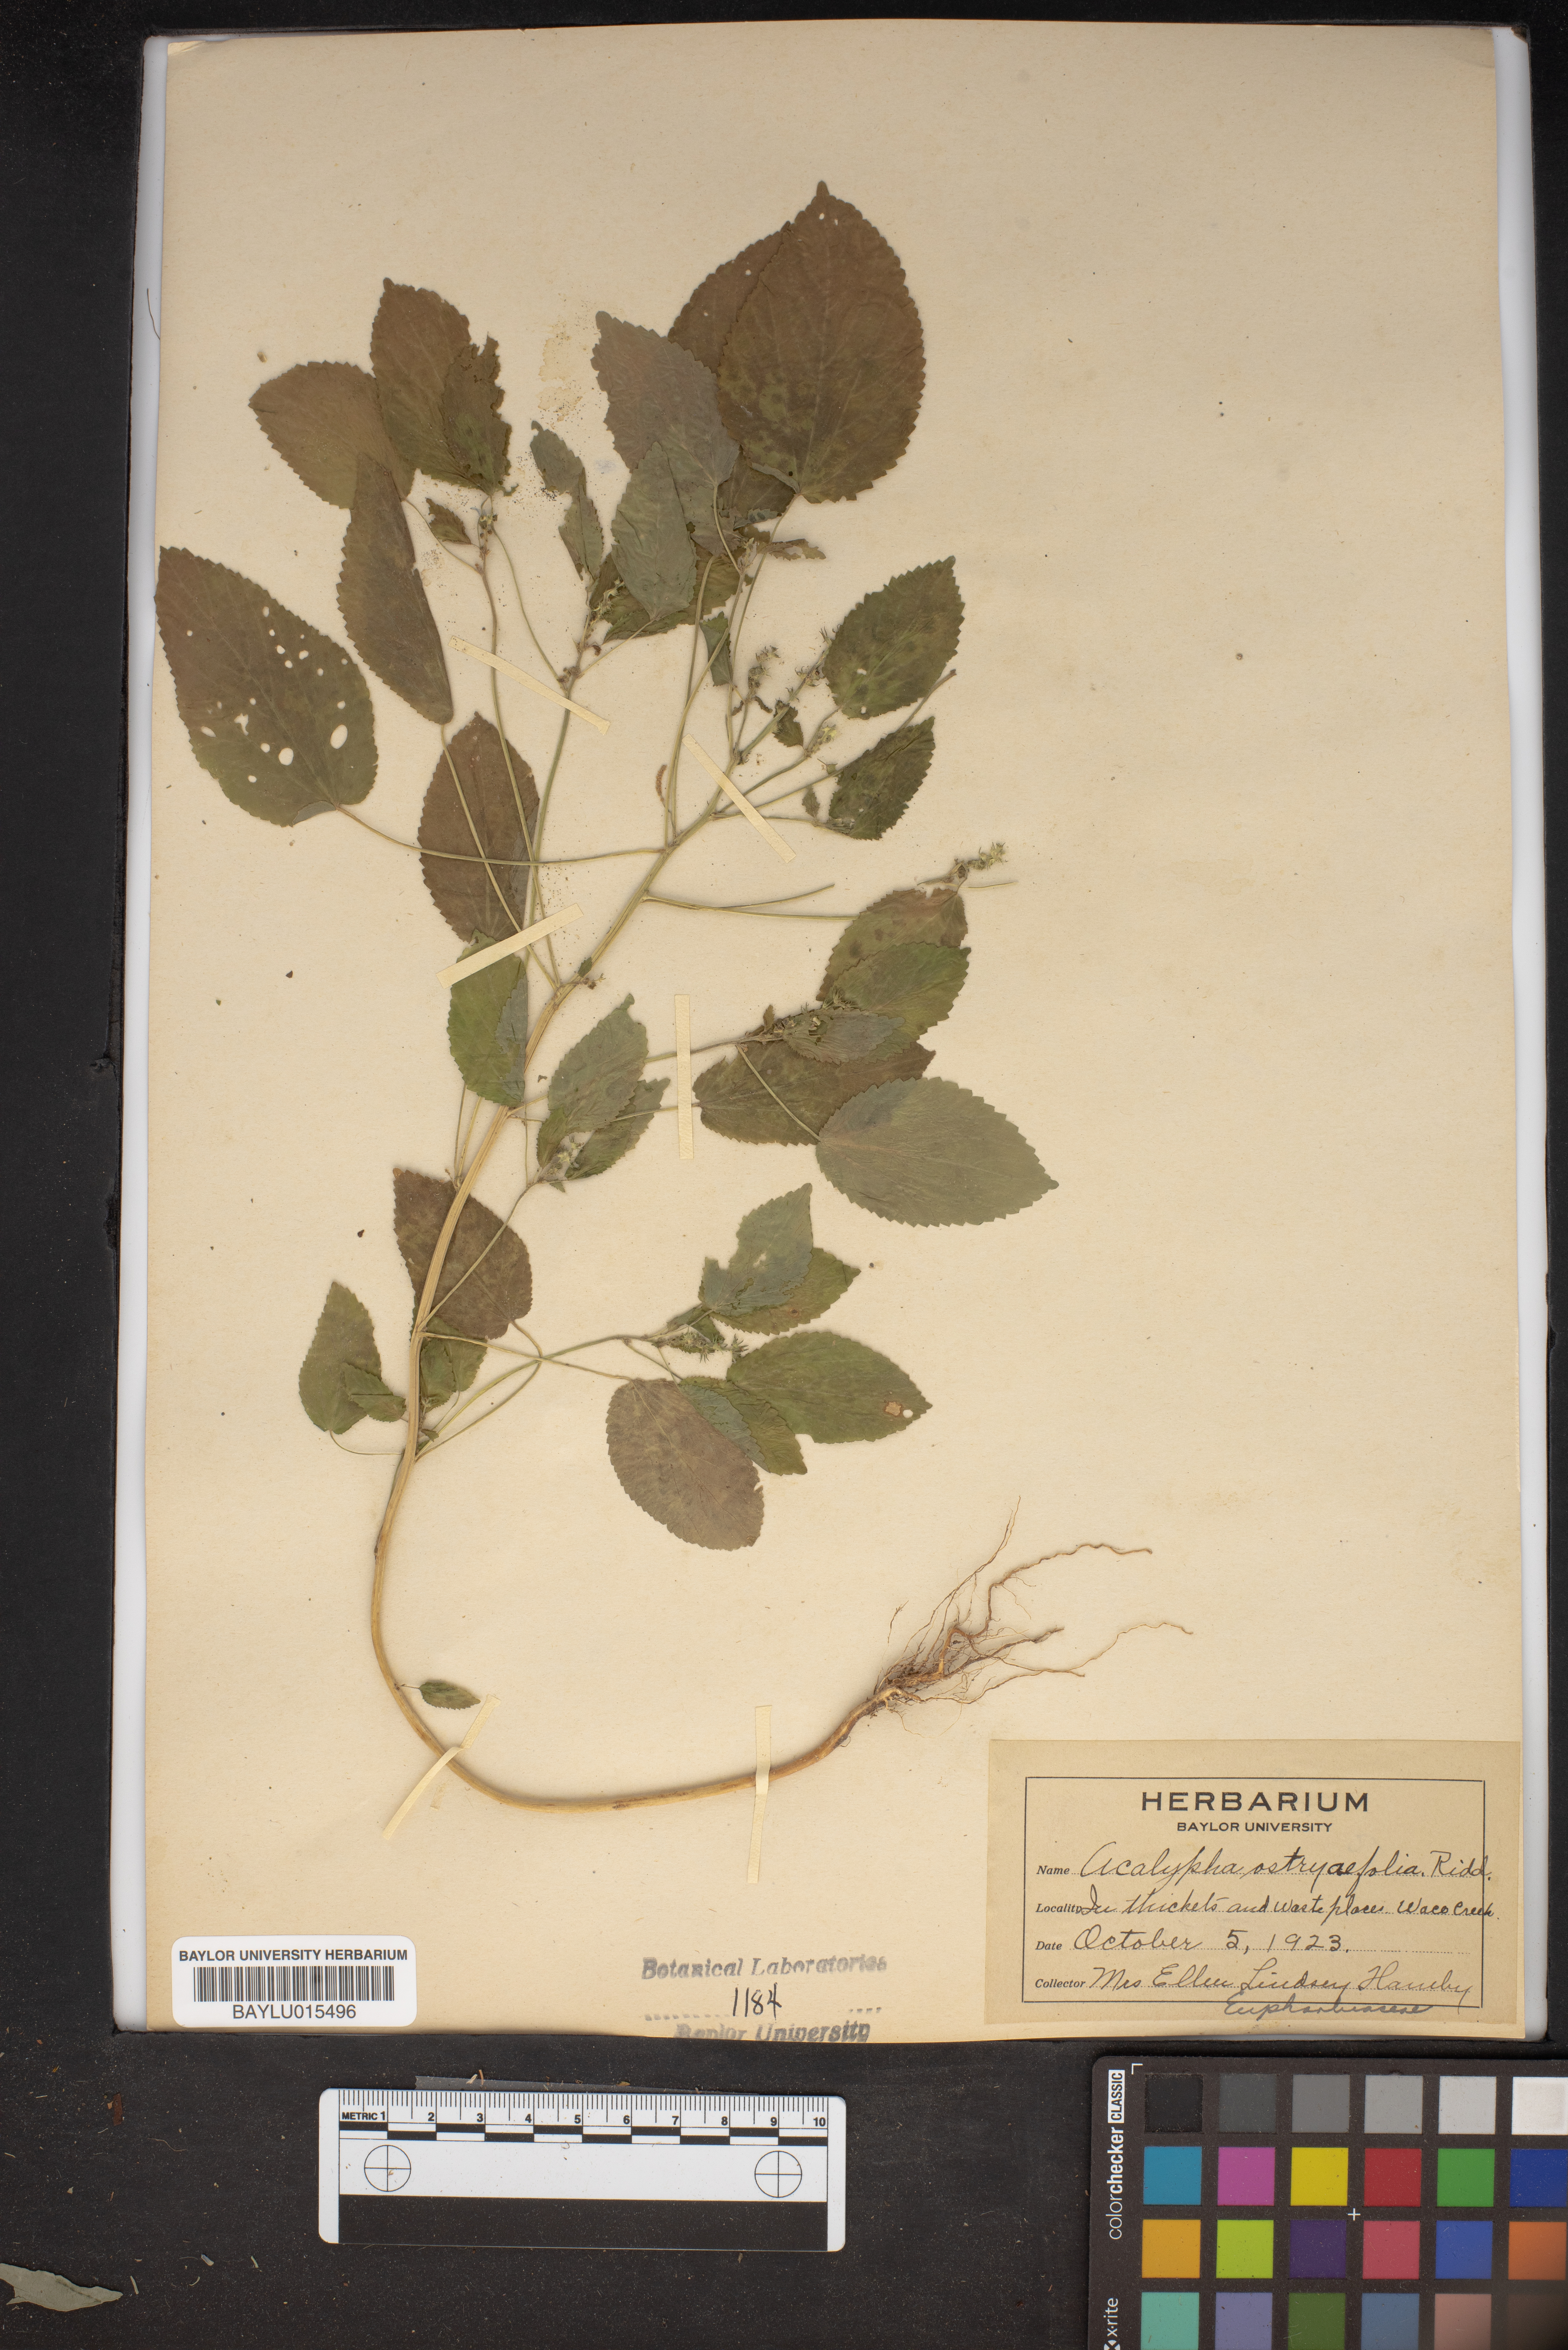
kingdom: Plantae
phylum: Tracheophyta
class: Magnoliopsida
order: Malpighiales
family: Euphorbiaceae
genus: Acalypha
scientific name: Acalypha ostryifolia
